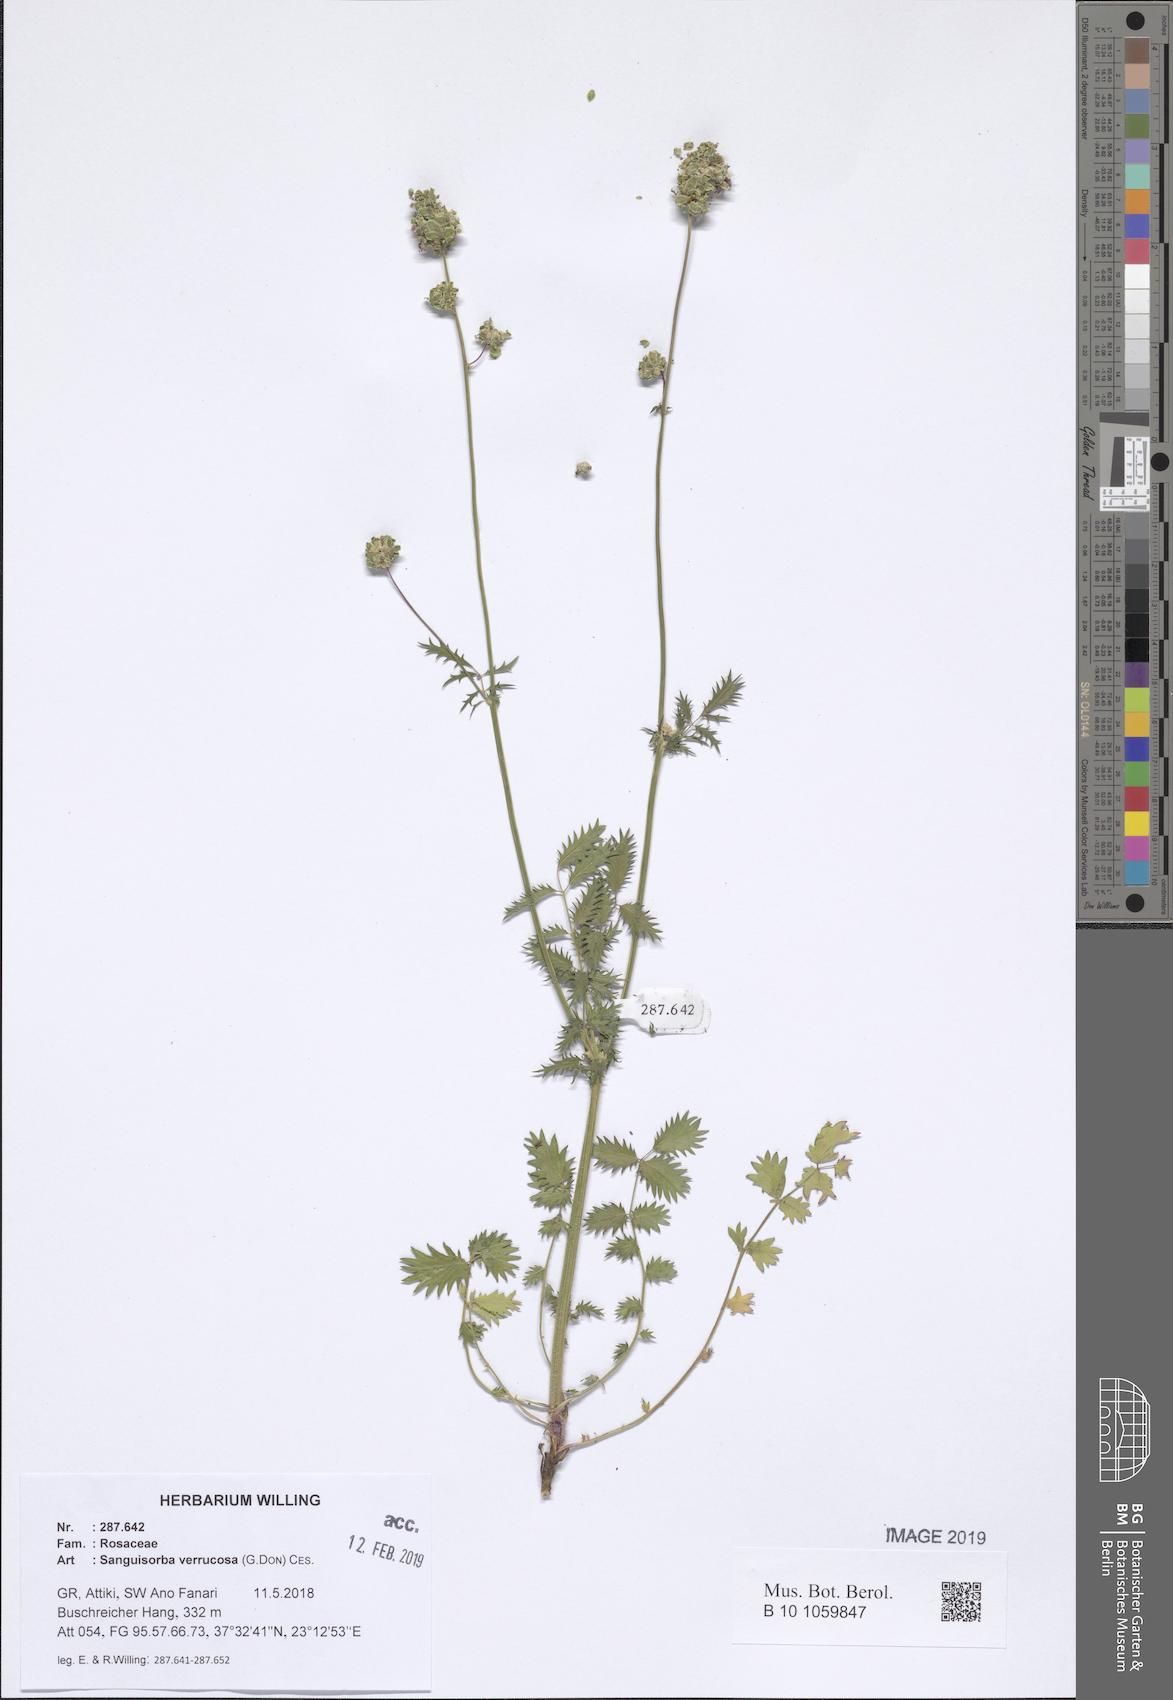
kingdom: Plantae
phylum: Tracheophyta
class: Magnoliopsida
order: Rosales
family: Rosaceae
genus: Poterium
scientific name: Poterium verrucosum
